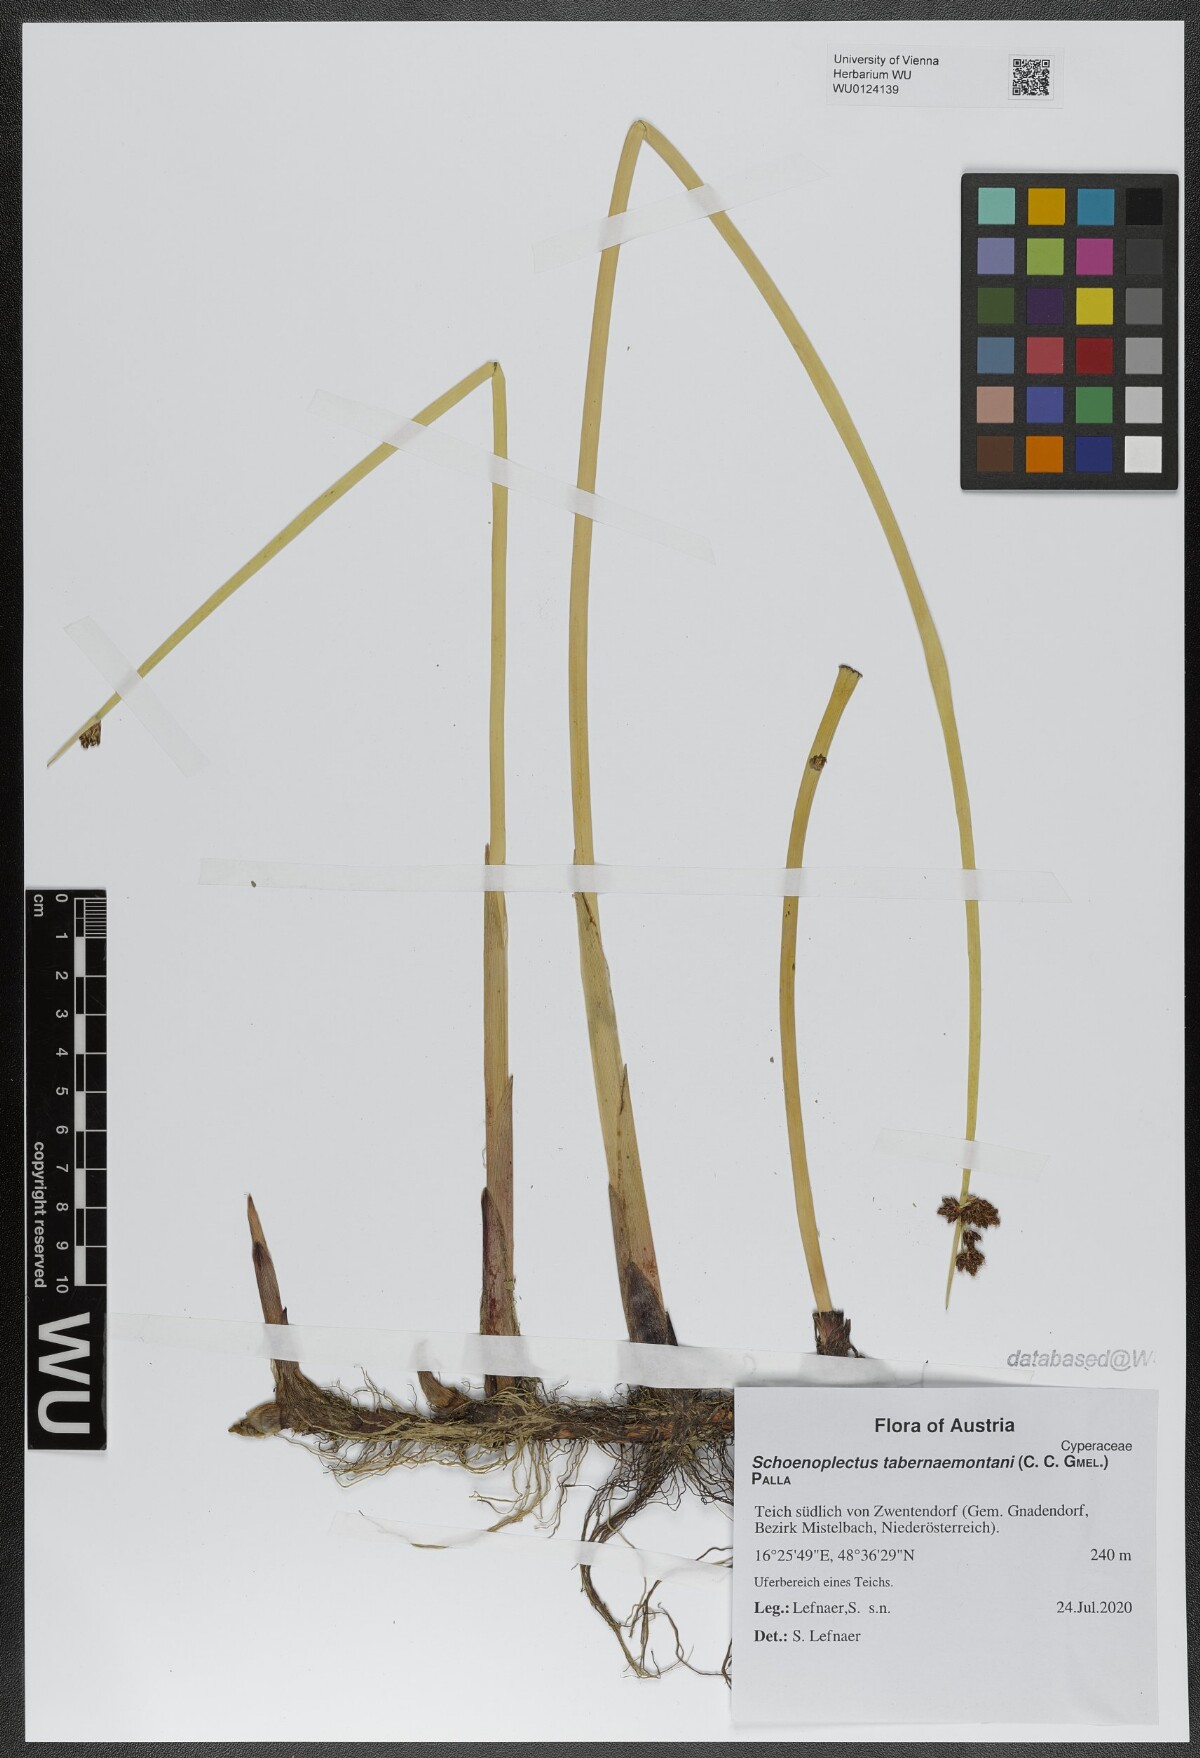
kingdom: Plantae
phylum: Tracheophyta
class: Liliopsida
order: Poales
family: Cyperaceae
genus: Schoenoplectus
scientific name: Schoenoplectus tabernaemontani
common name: Grey club-rush
